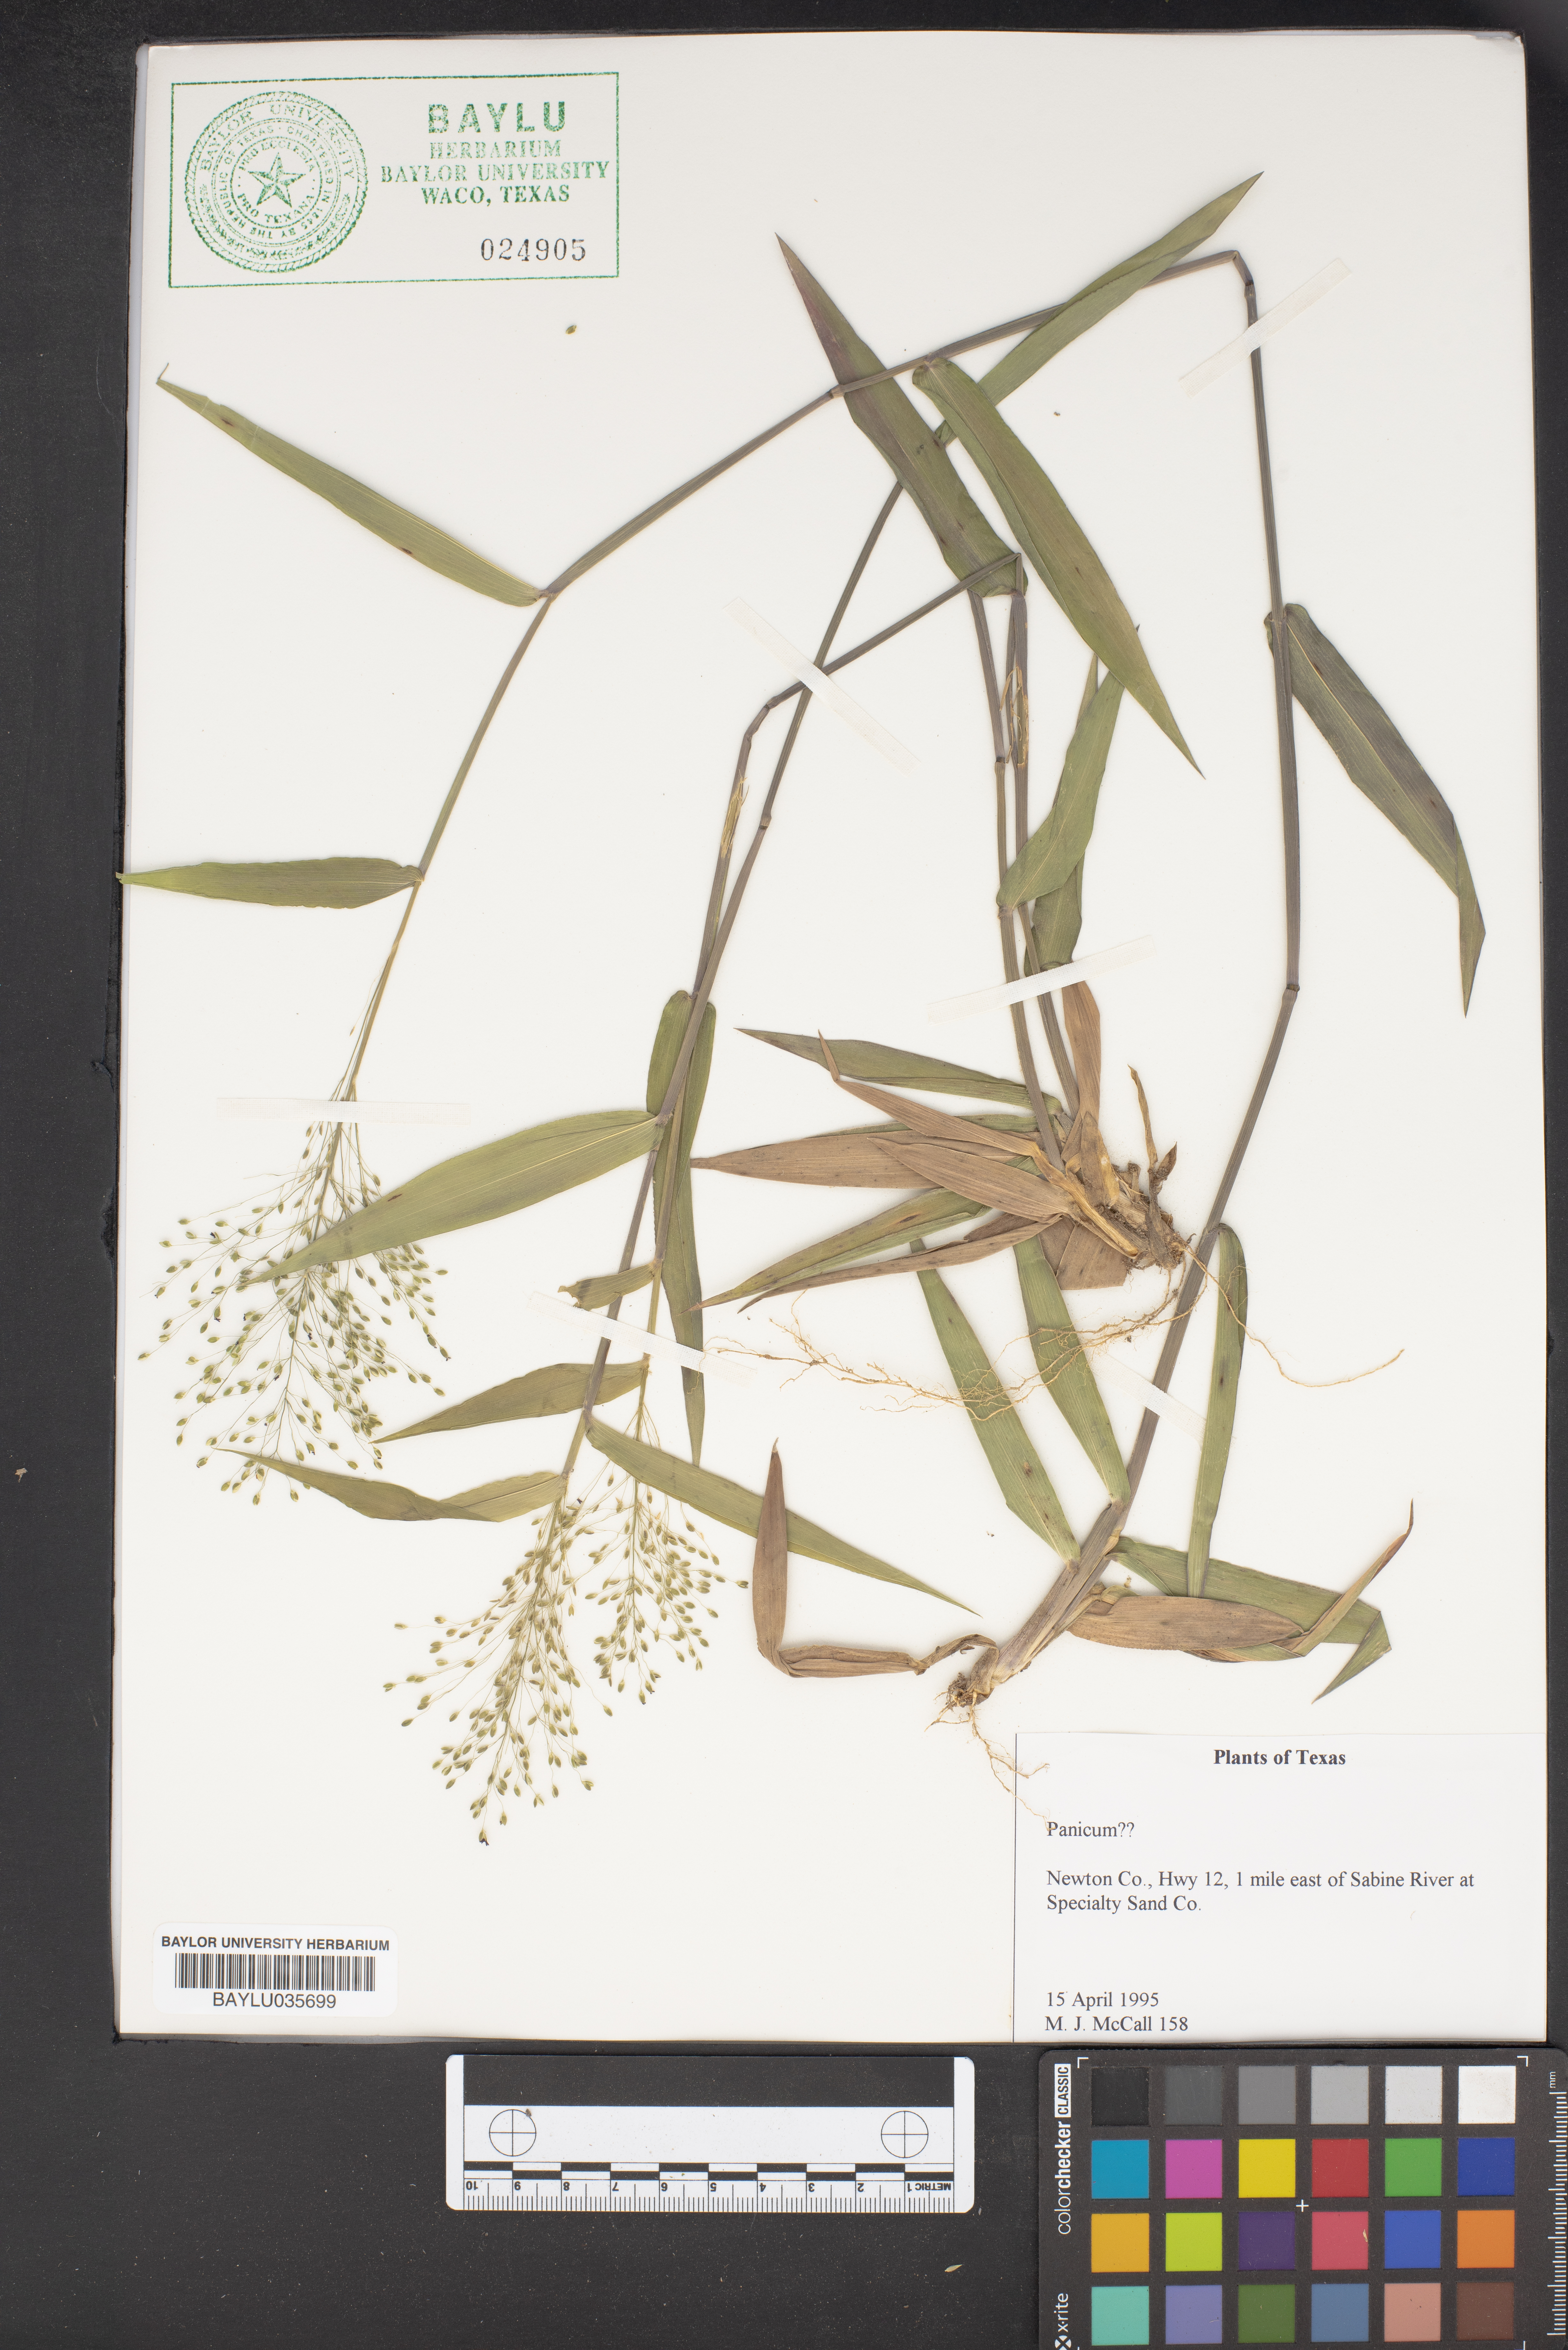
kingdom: Plantae
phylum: Tracheophyta
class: Liliopsida
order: Poales
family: Poaceae
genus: Panicum
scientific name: Panicum
